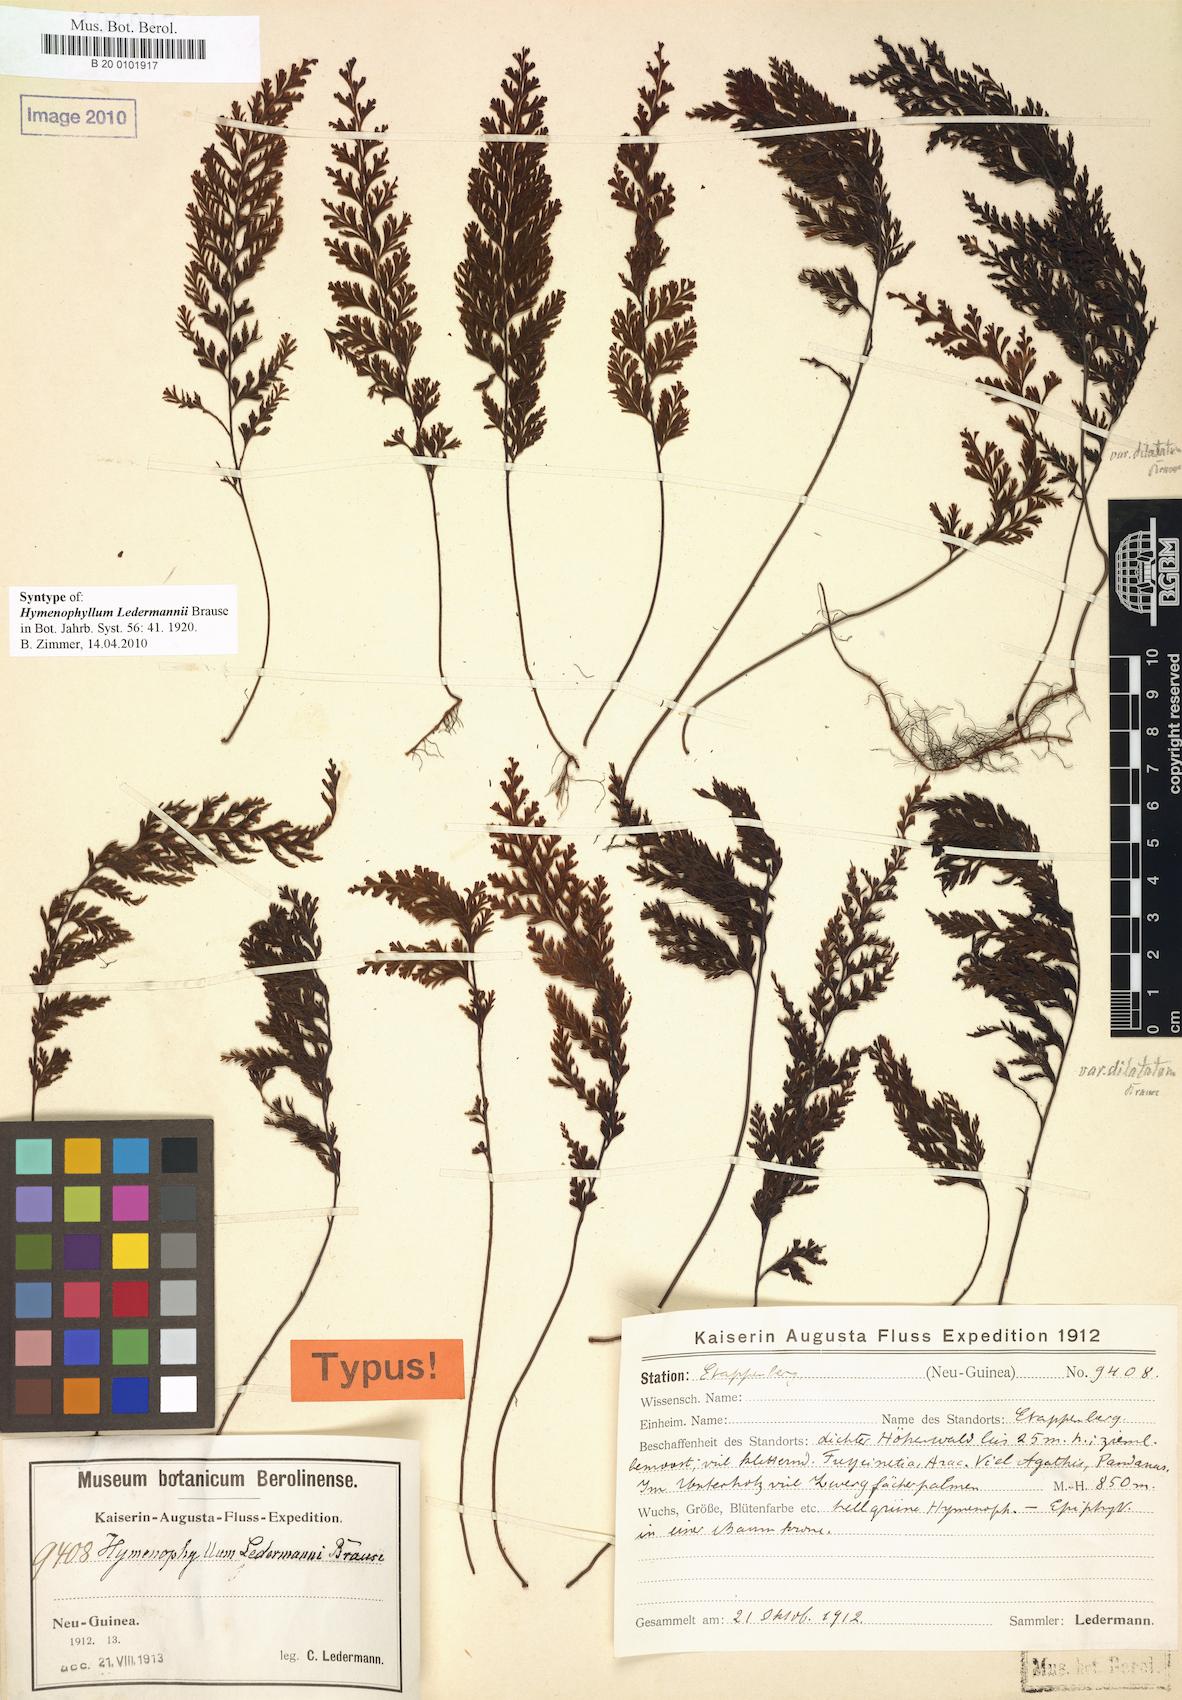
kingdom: Plantae
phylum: Tracheophyta
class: Polypodiopsida
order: Hymenophyllales
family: Hymenophyllaceae
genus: Hymenophyllum
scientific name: Hymenophyllum ledermannii
